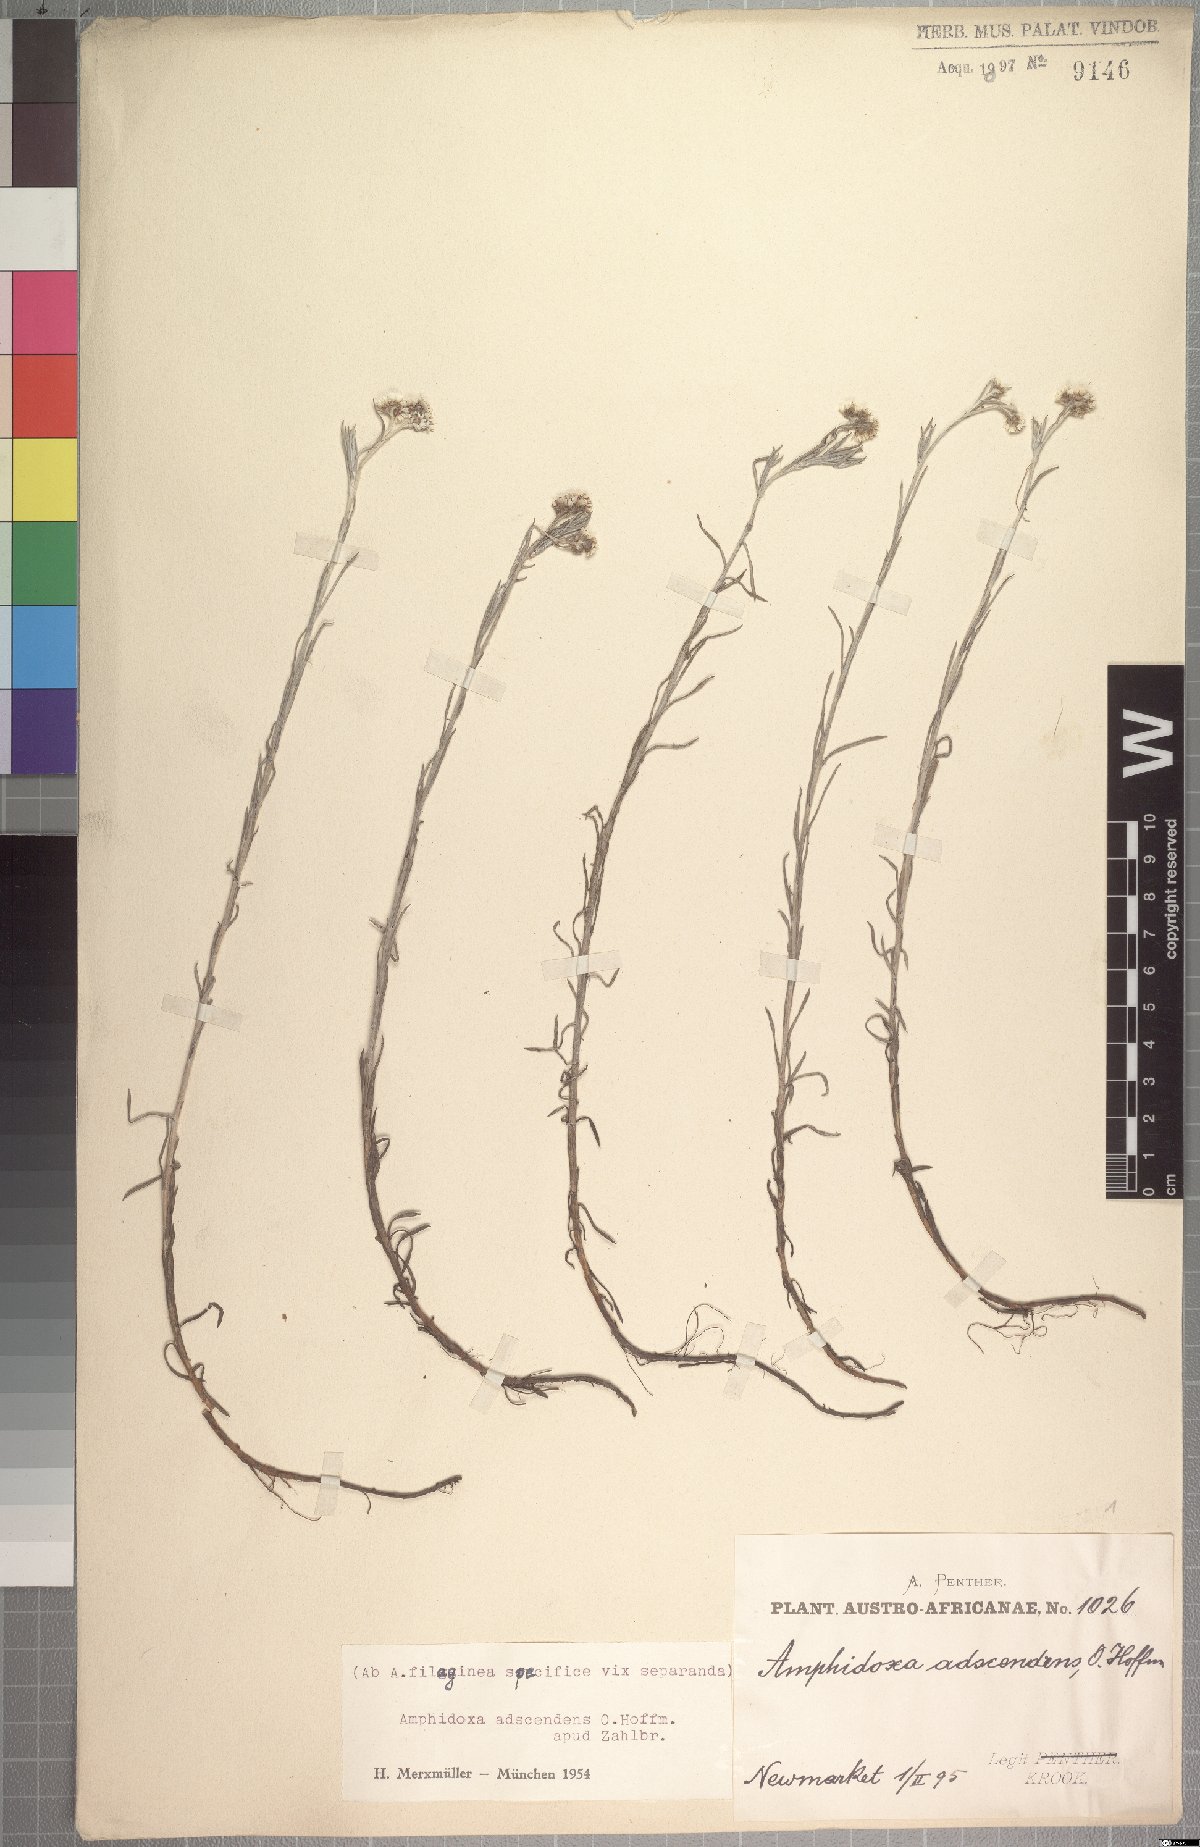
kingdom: Plantae
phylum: Tracheophyta
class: Magnoliopsida
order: Asterales
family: Asteraceae
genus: Gnaphalium
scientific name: Gnaphalium griquense
